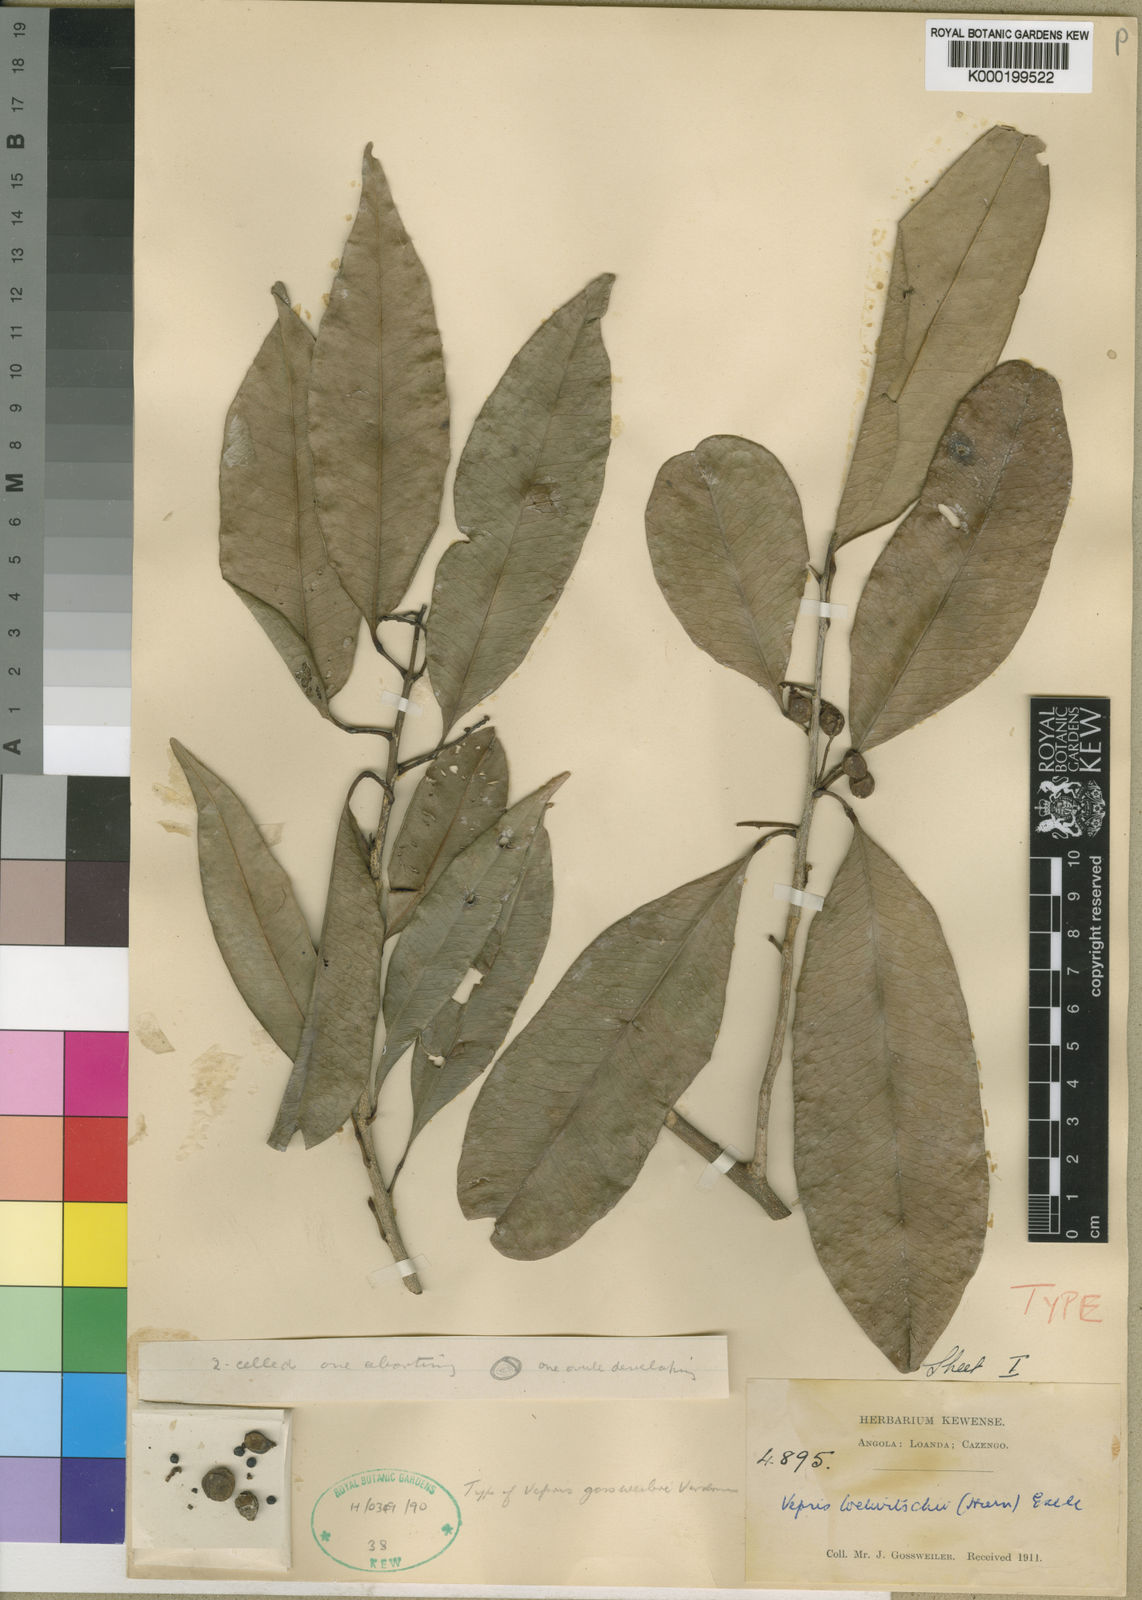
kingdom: Plantae
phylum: Tracheophyta
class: Magnoliopsida
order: Sapindales
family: Rutaceae
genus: Vepris
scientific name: Vepris welwitschii
